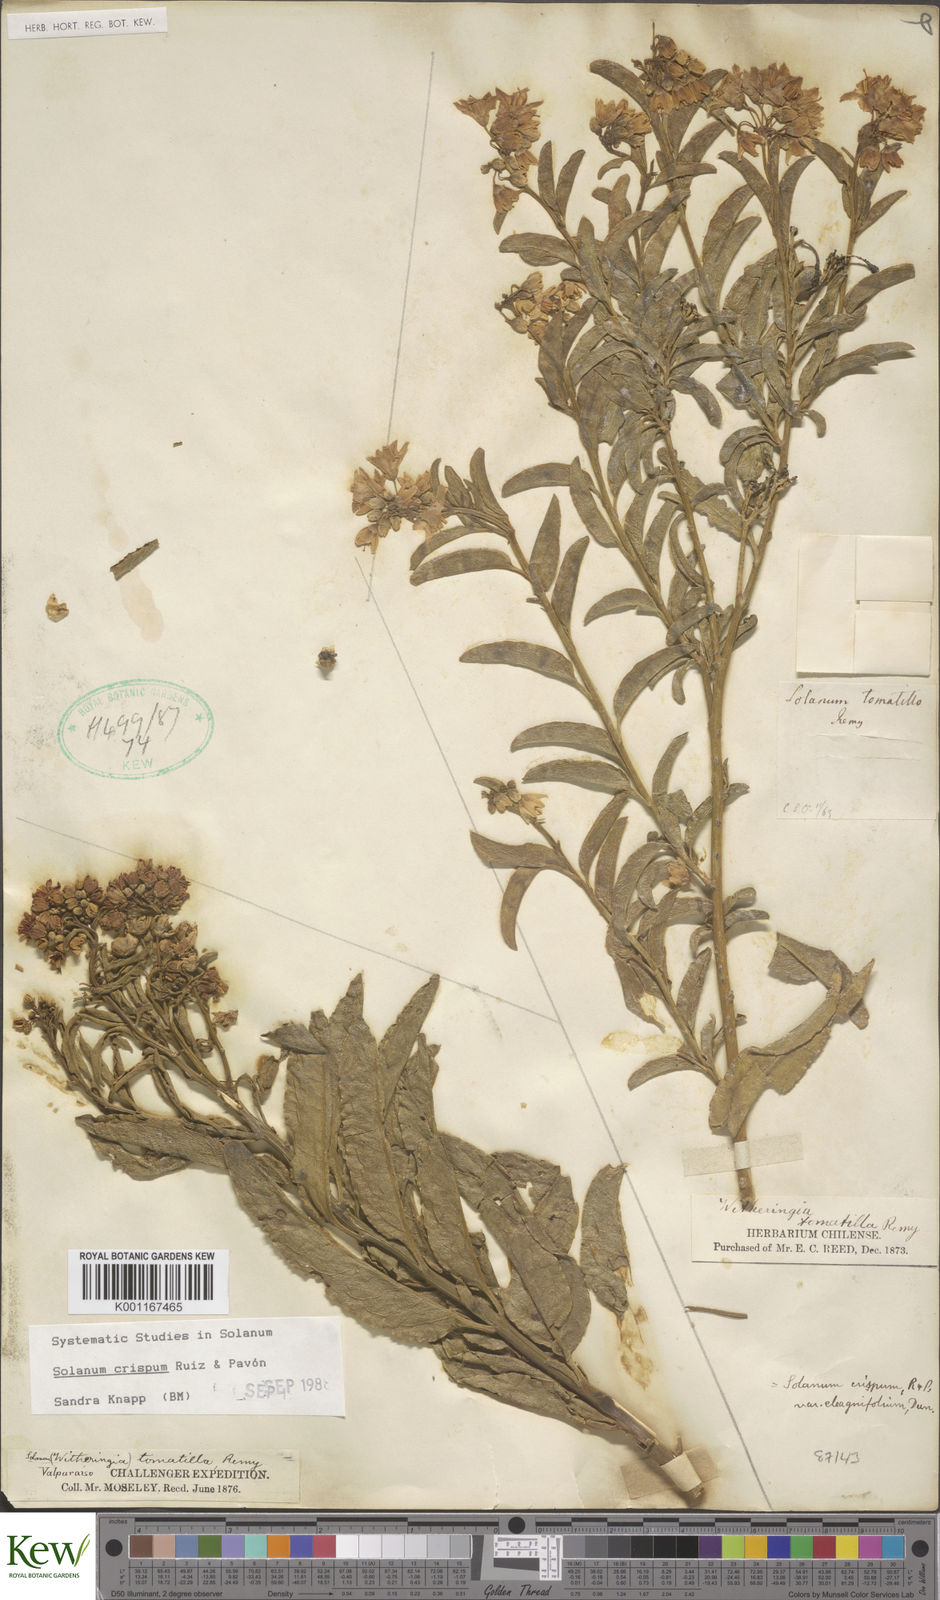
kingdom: Plantae
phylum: Tracheophyta
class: Magnoliopsida
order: Solanales
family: Solanaceae
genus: Solanum
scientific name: Solanum crispum
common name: Chilean nightshade
